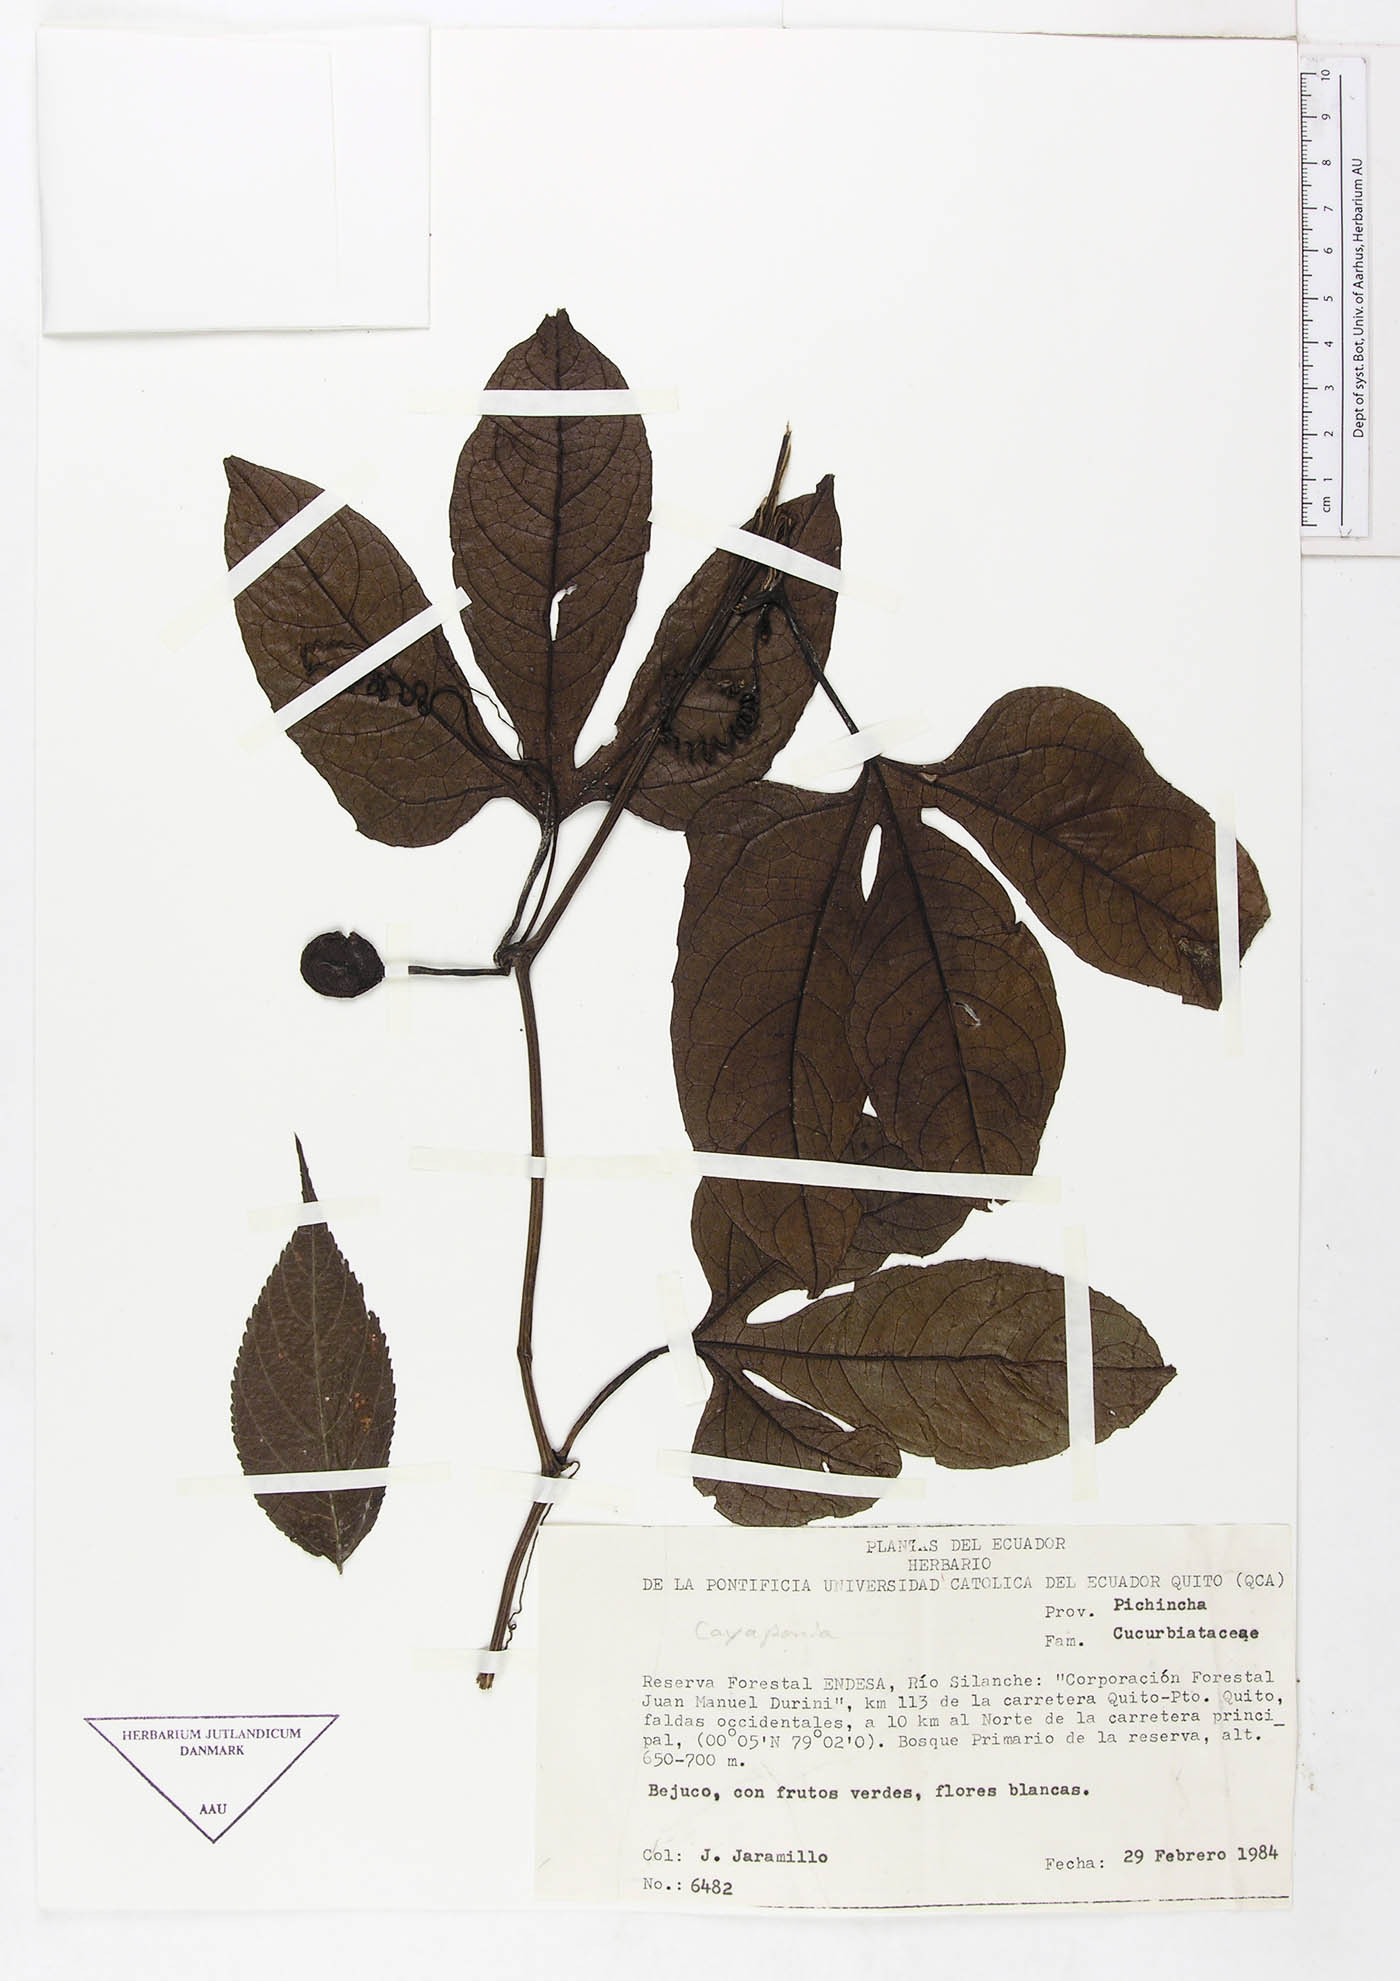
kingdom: Plantae
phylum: Tracheophyta
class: Magnoliopsida
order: Cucurbitales
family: Cucurbitaceae
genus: Cayaponia
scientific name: Cayaponia macrocalyx
